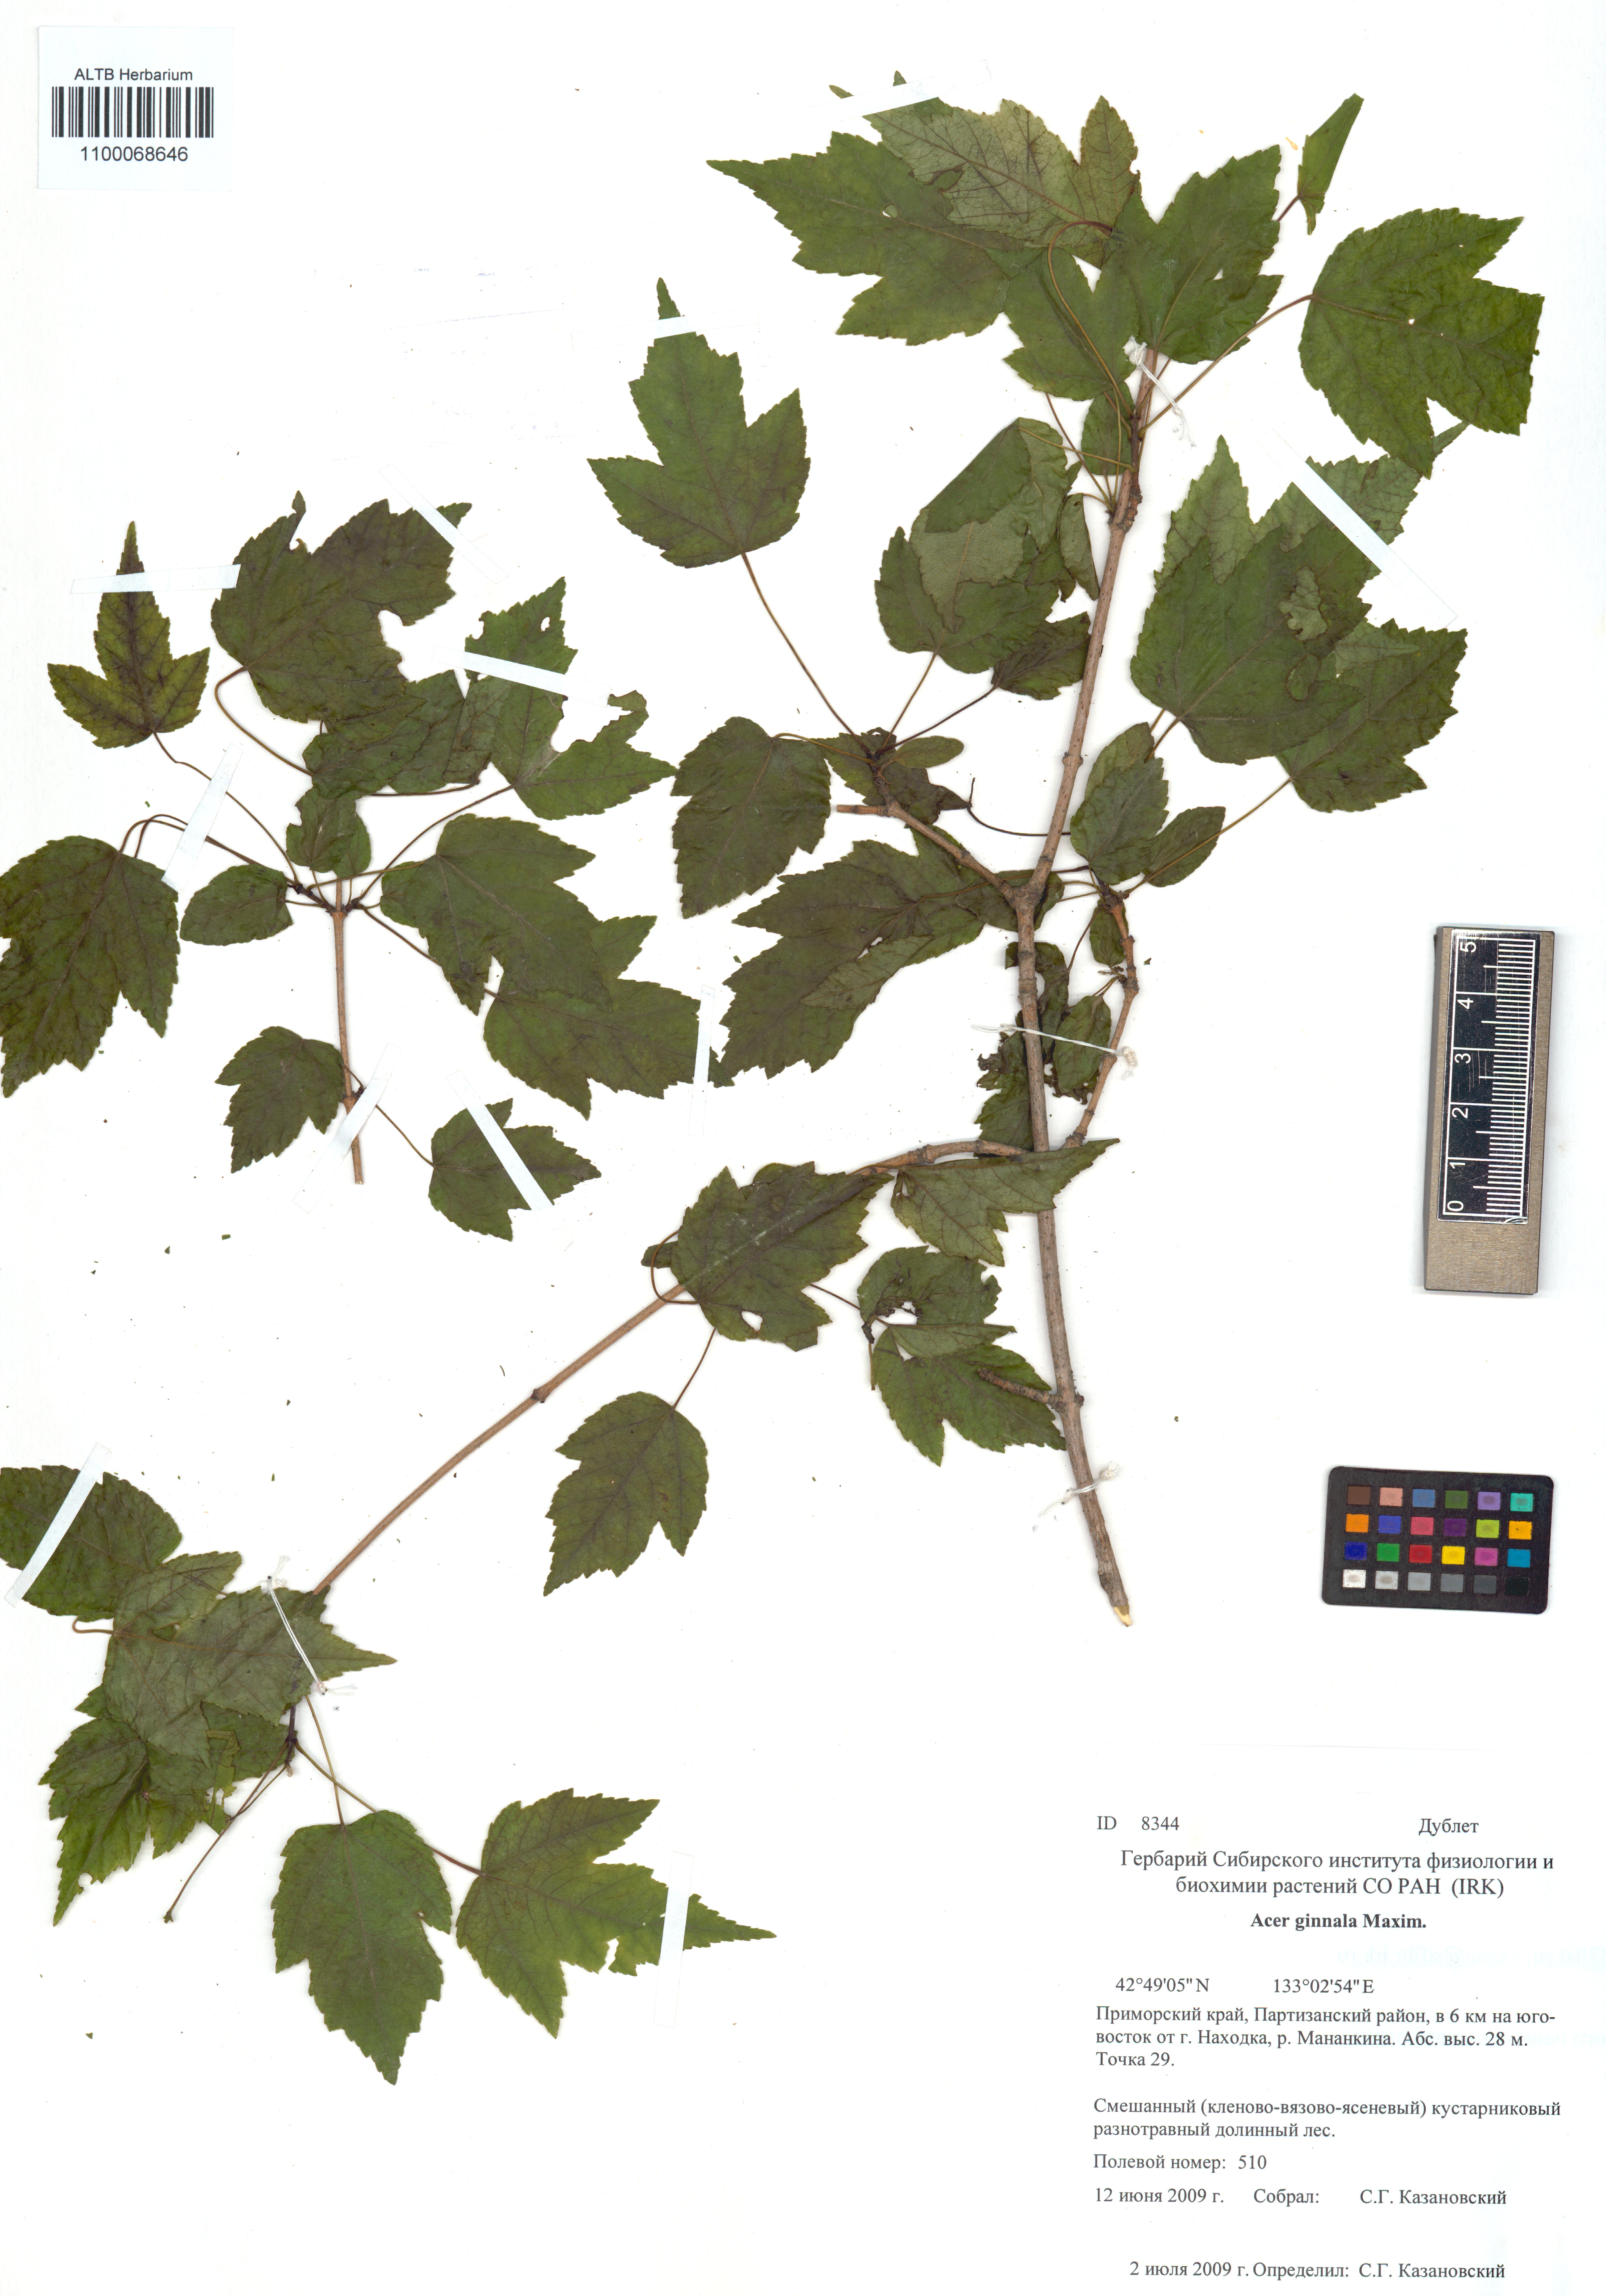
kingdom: Plantae
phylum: Tracheophyta
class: Magnoliopsida
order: Sapindales
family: Sapindaceae
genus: Acer
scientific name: Acer tataricum
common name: Tartar maple
